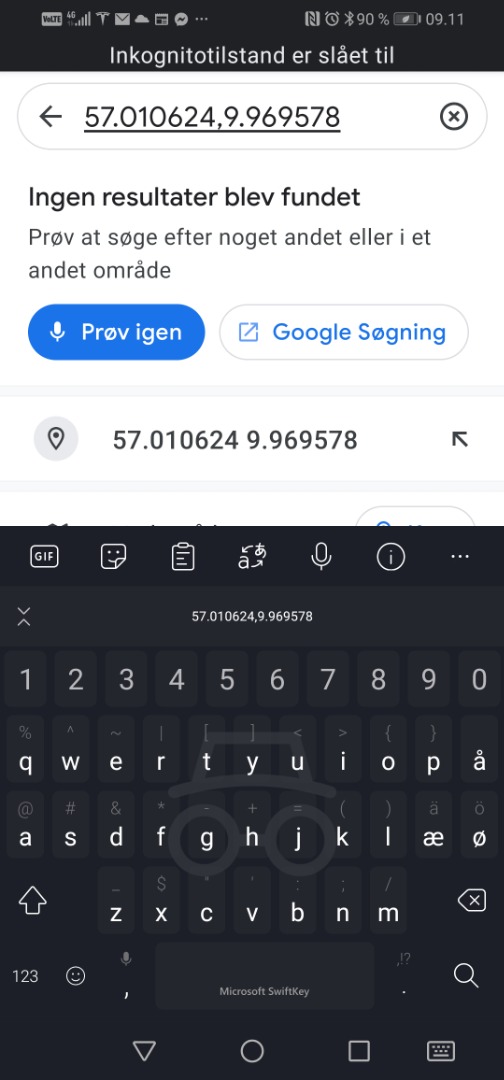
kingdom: Animalia
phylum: Chordata
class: Aves
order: Passeriformes
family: Hirundinidae
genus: Riparia
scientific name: Riparia riparia
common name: Digesvale
